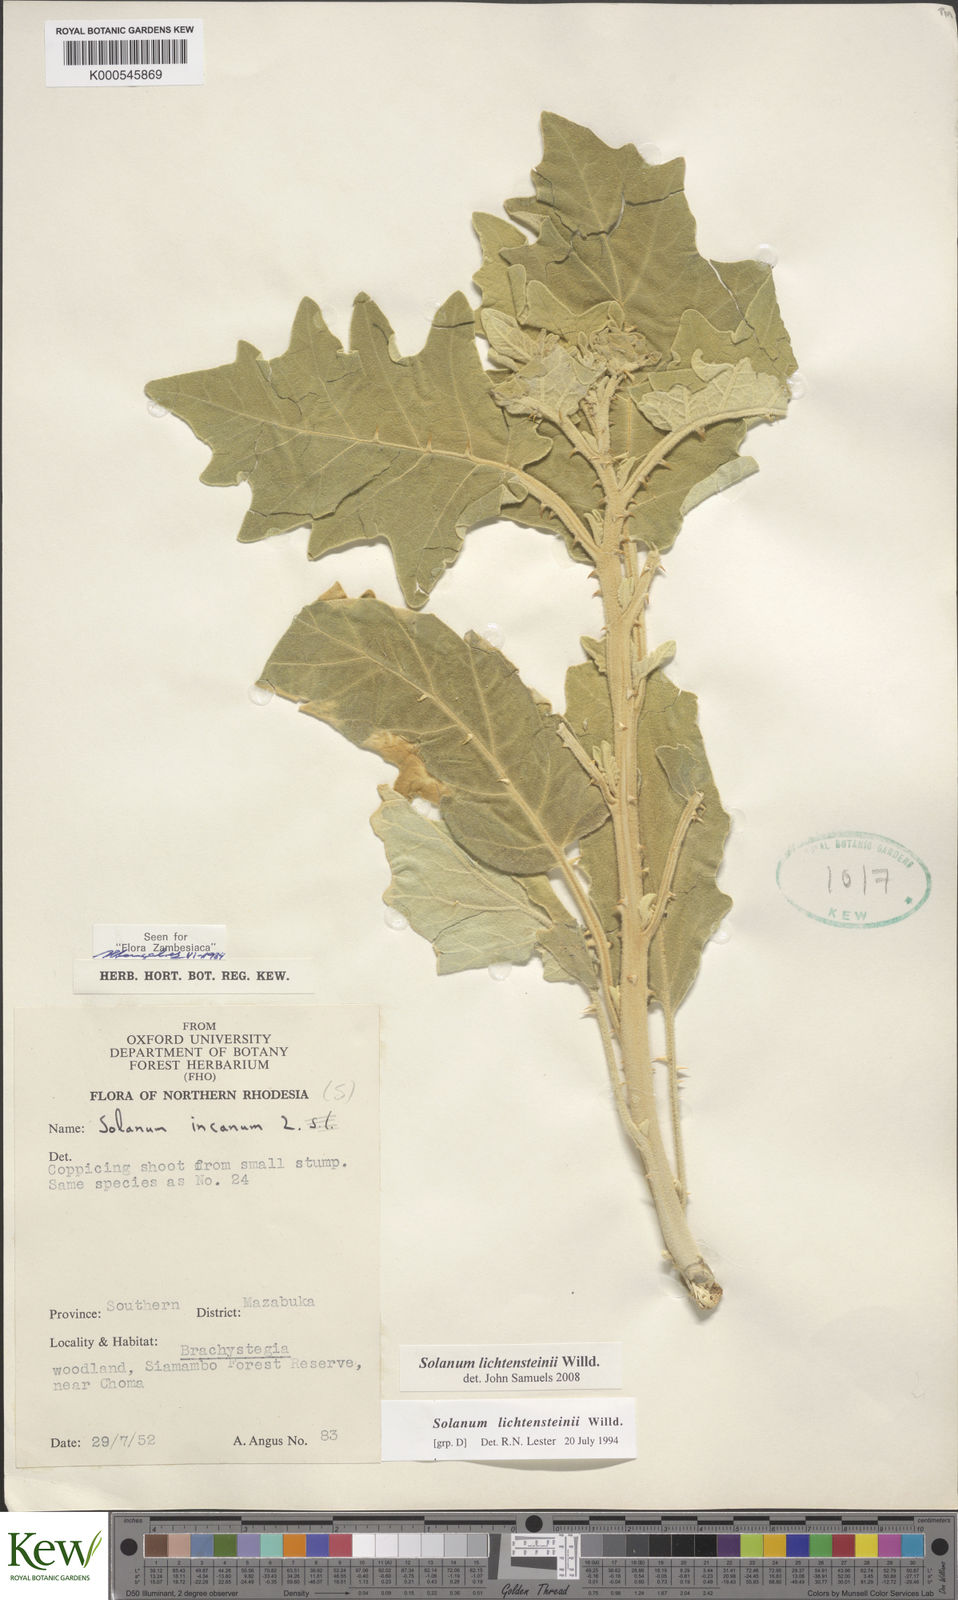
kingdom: Plantae
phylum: Tracheophyta
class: Magnoliopsida
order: Solanales
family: Solanaceae
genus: Solanum
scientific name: Solanum lichtensteinii
